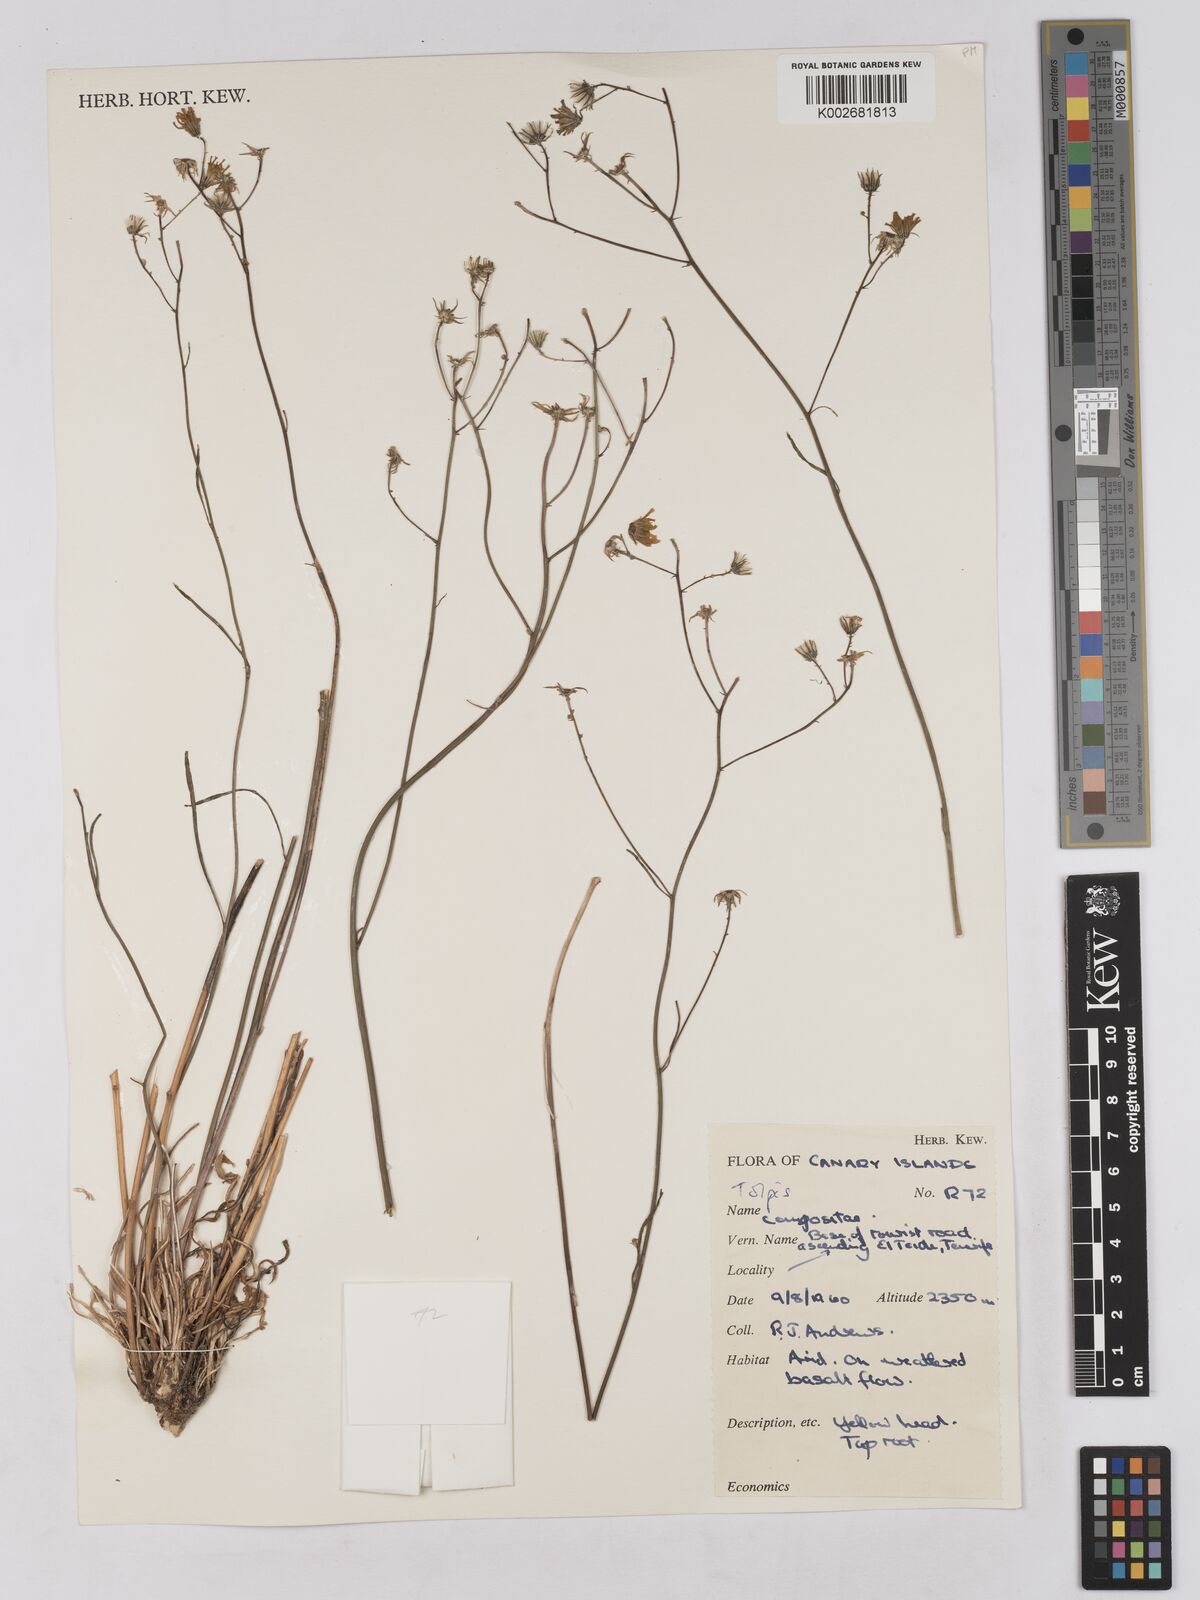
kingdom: Plantae
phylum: Tracheophyta
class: Magnoliopsida
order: Asterales
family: Asteraceae
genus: Tolpis
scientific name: Tolpis webbii
